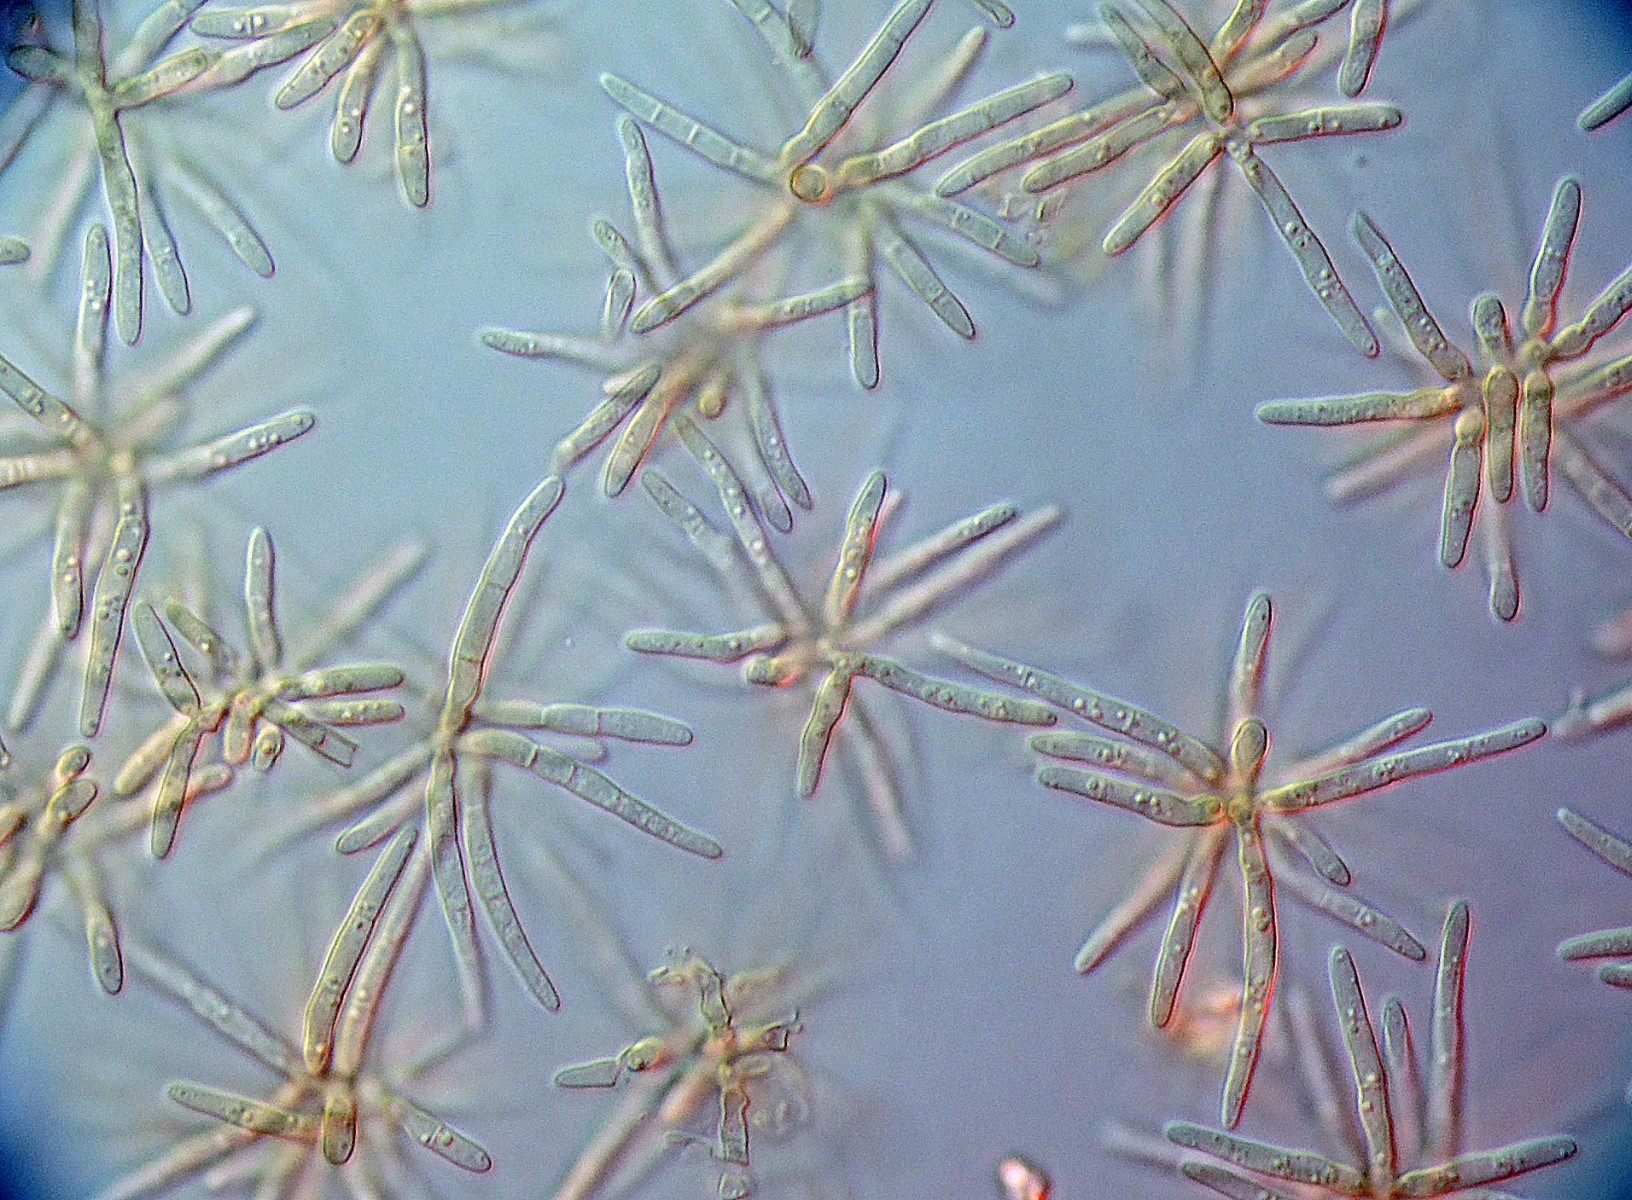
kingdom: Fungi
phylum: Ascomycota
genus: Psammina
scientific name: Psammina bommeriae
